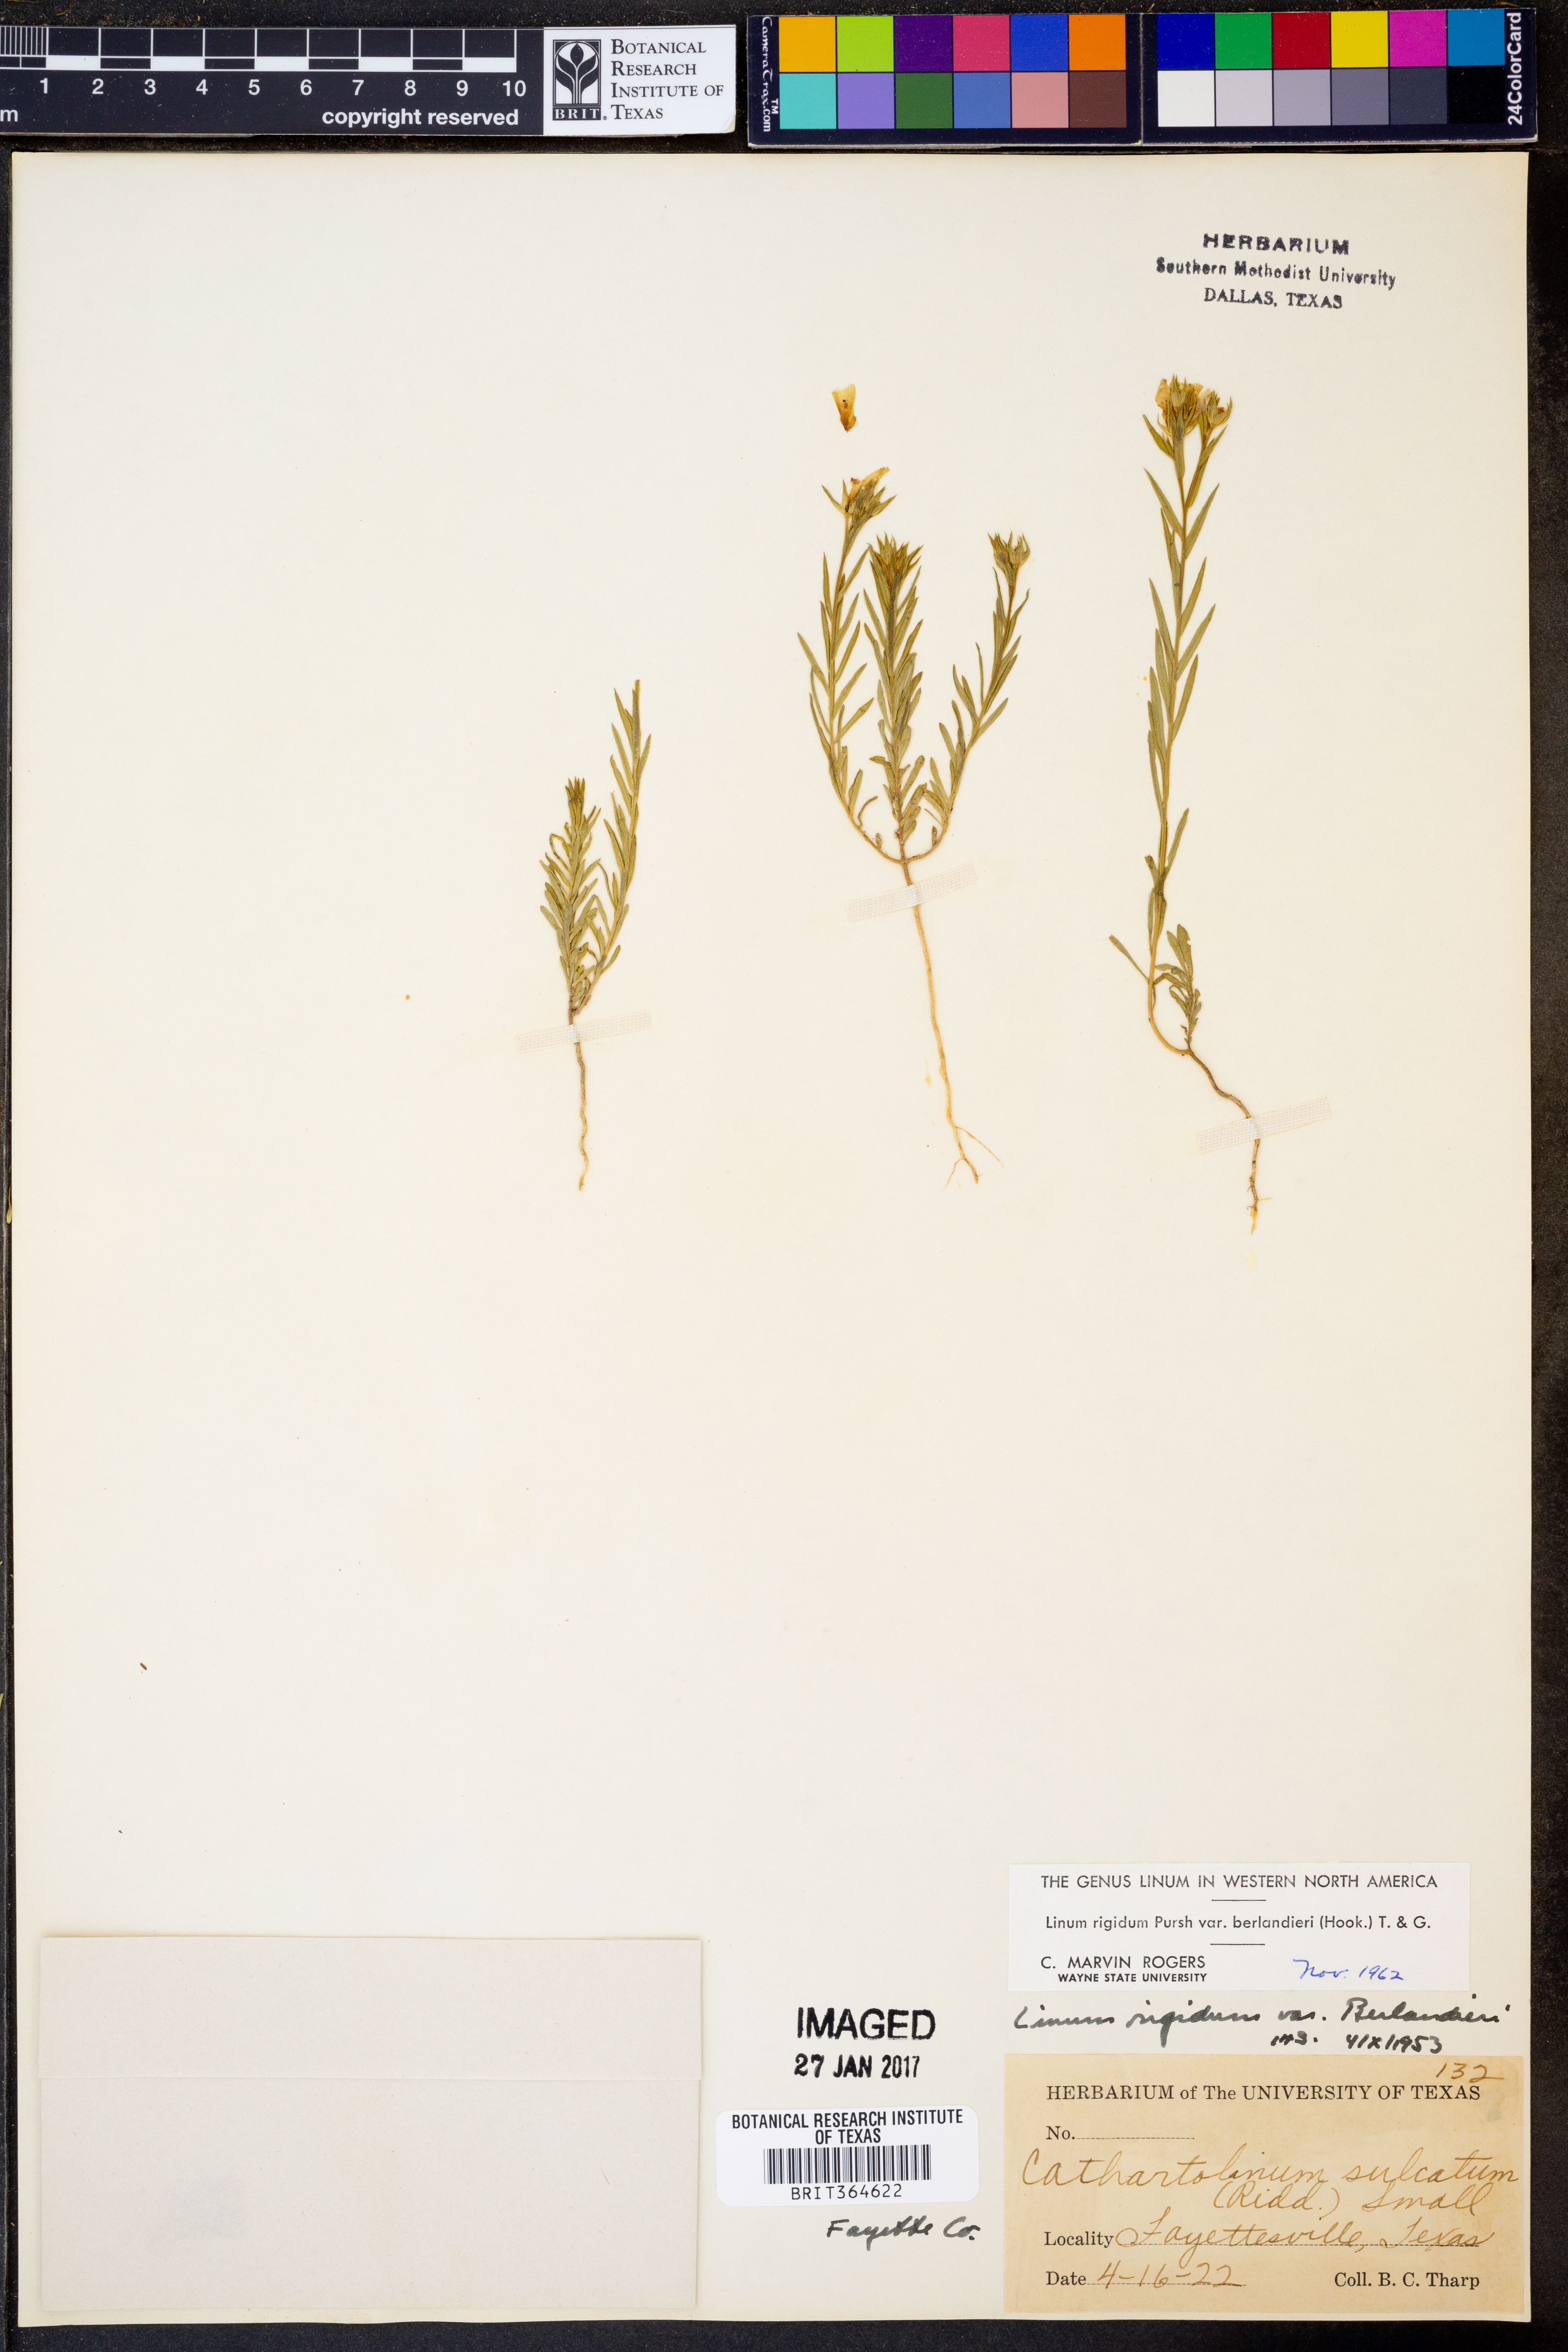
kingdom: Plantae
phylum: Tracheophyta
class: Magnoliopsida
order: Malpighiales
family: Linaceae
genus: Linum
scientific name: Linum berlandieri
